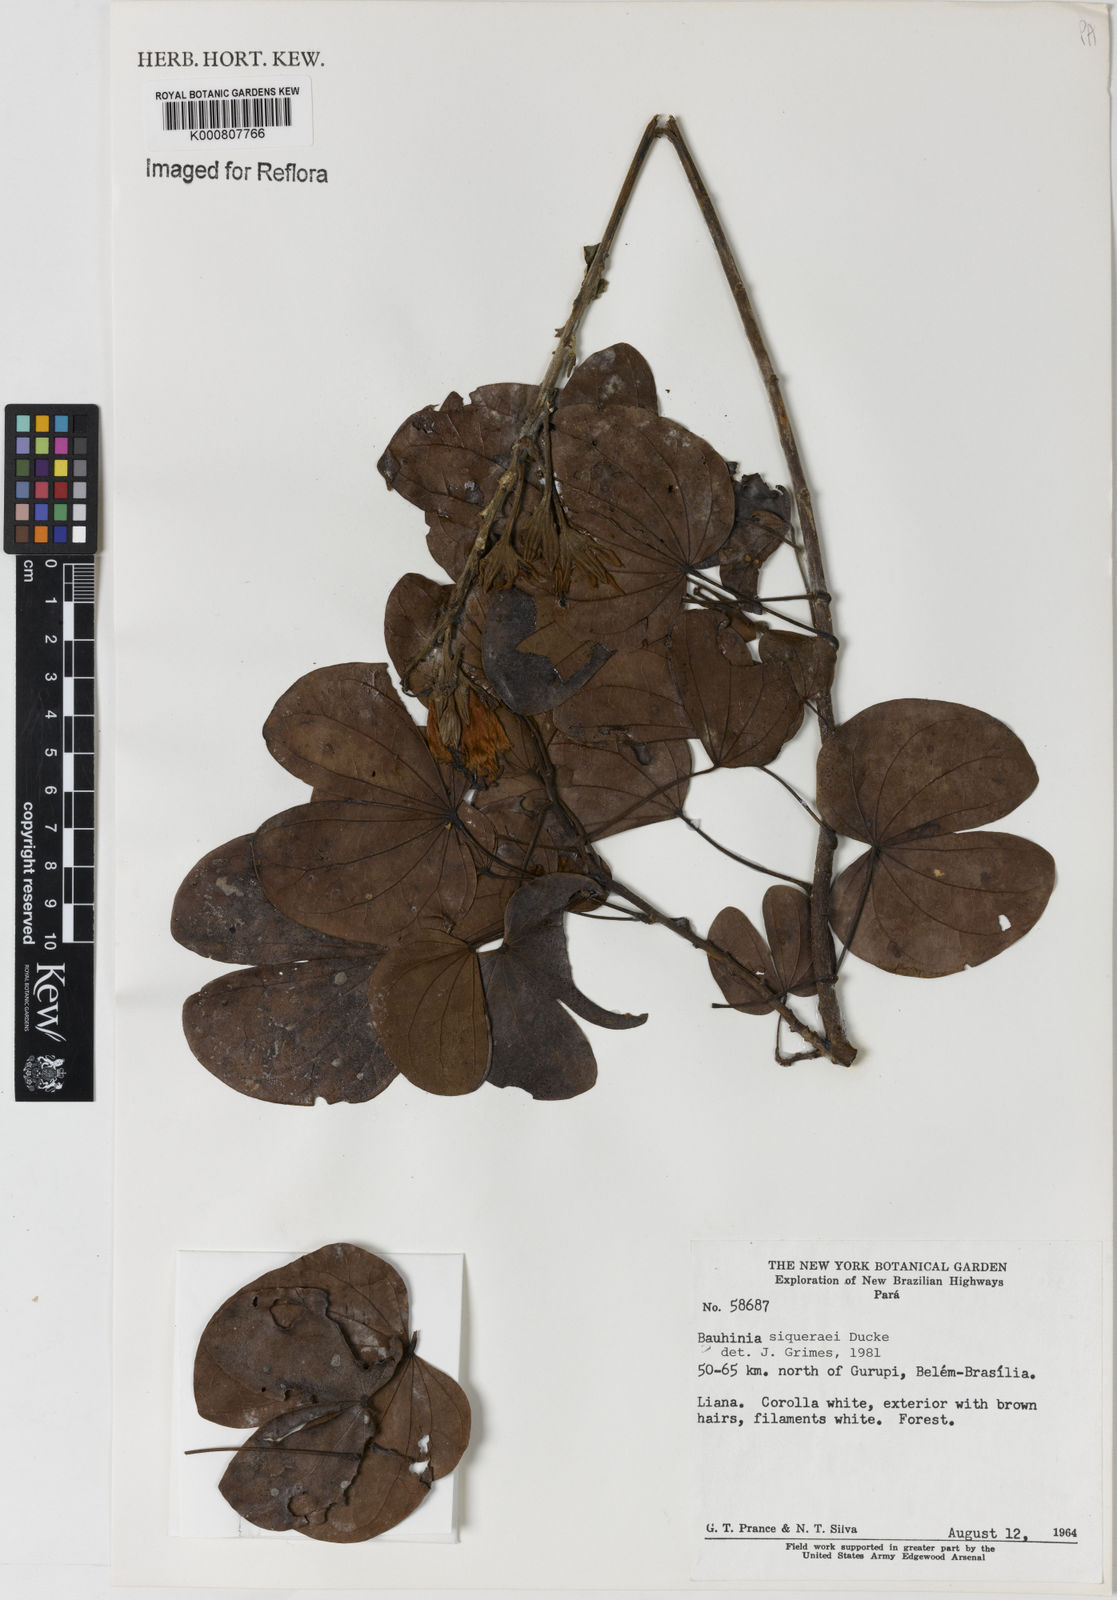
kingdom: Plantae
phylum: Tracheophyta
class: Magnoliopsida
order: Fabales
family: Fabaceae
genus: Bauhinia
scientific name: Bauhinia
